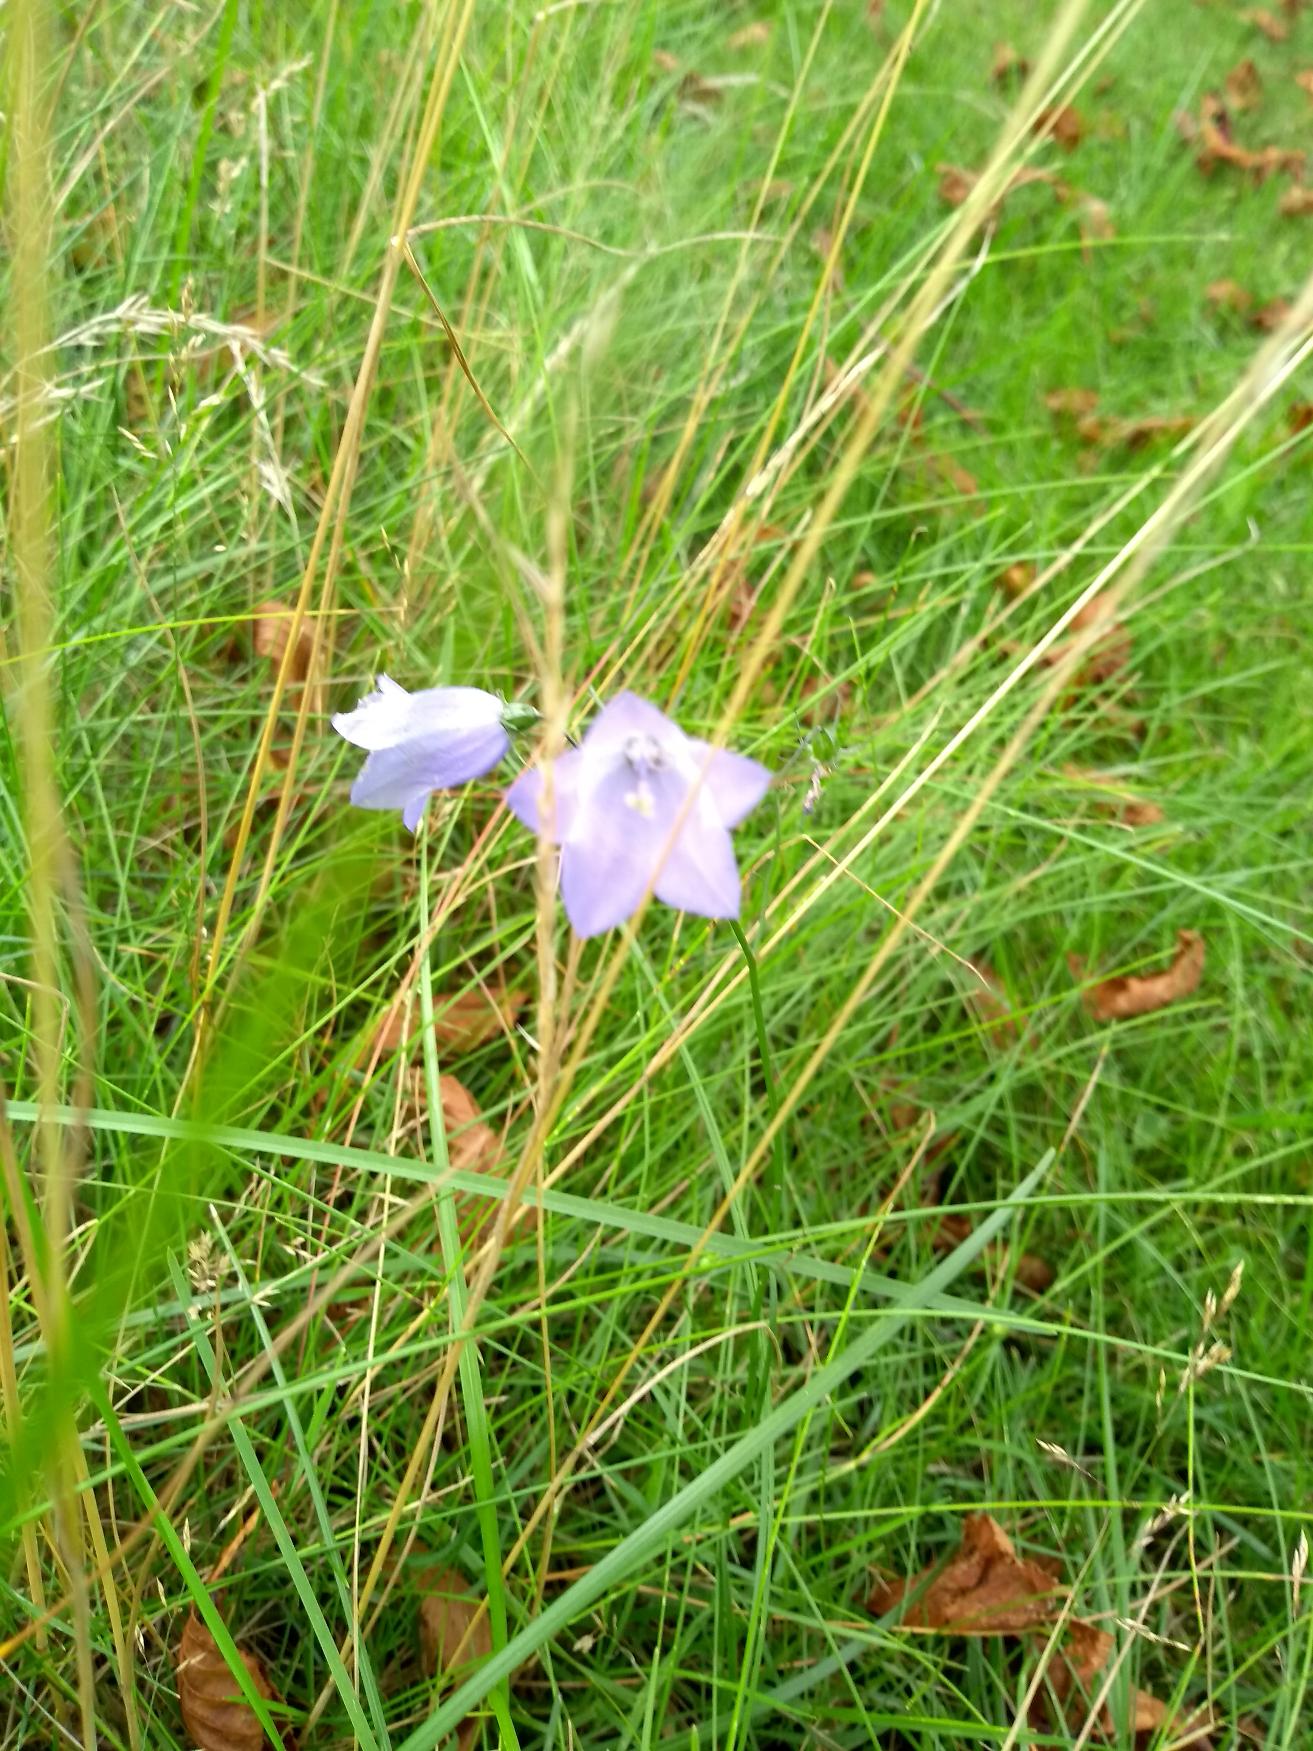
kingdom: Plantae
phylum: Tracheophyta
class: Magnoliopsida
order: Asterales
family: Campanulaceae
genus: Campanula
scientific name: Campanula rotundifolia
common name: Liden klokke
